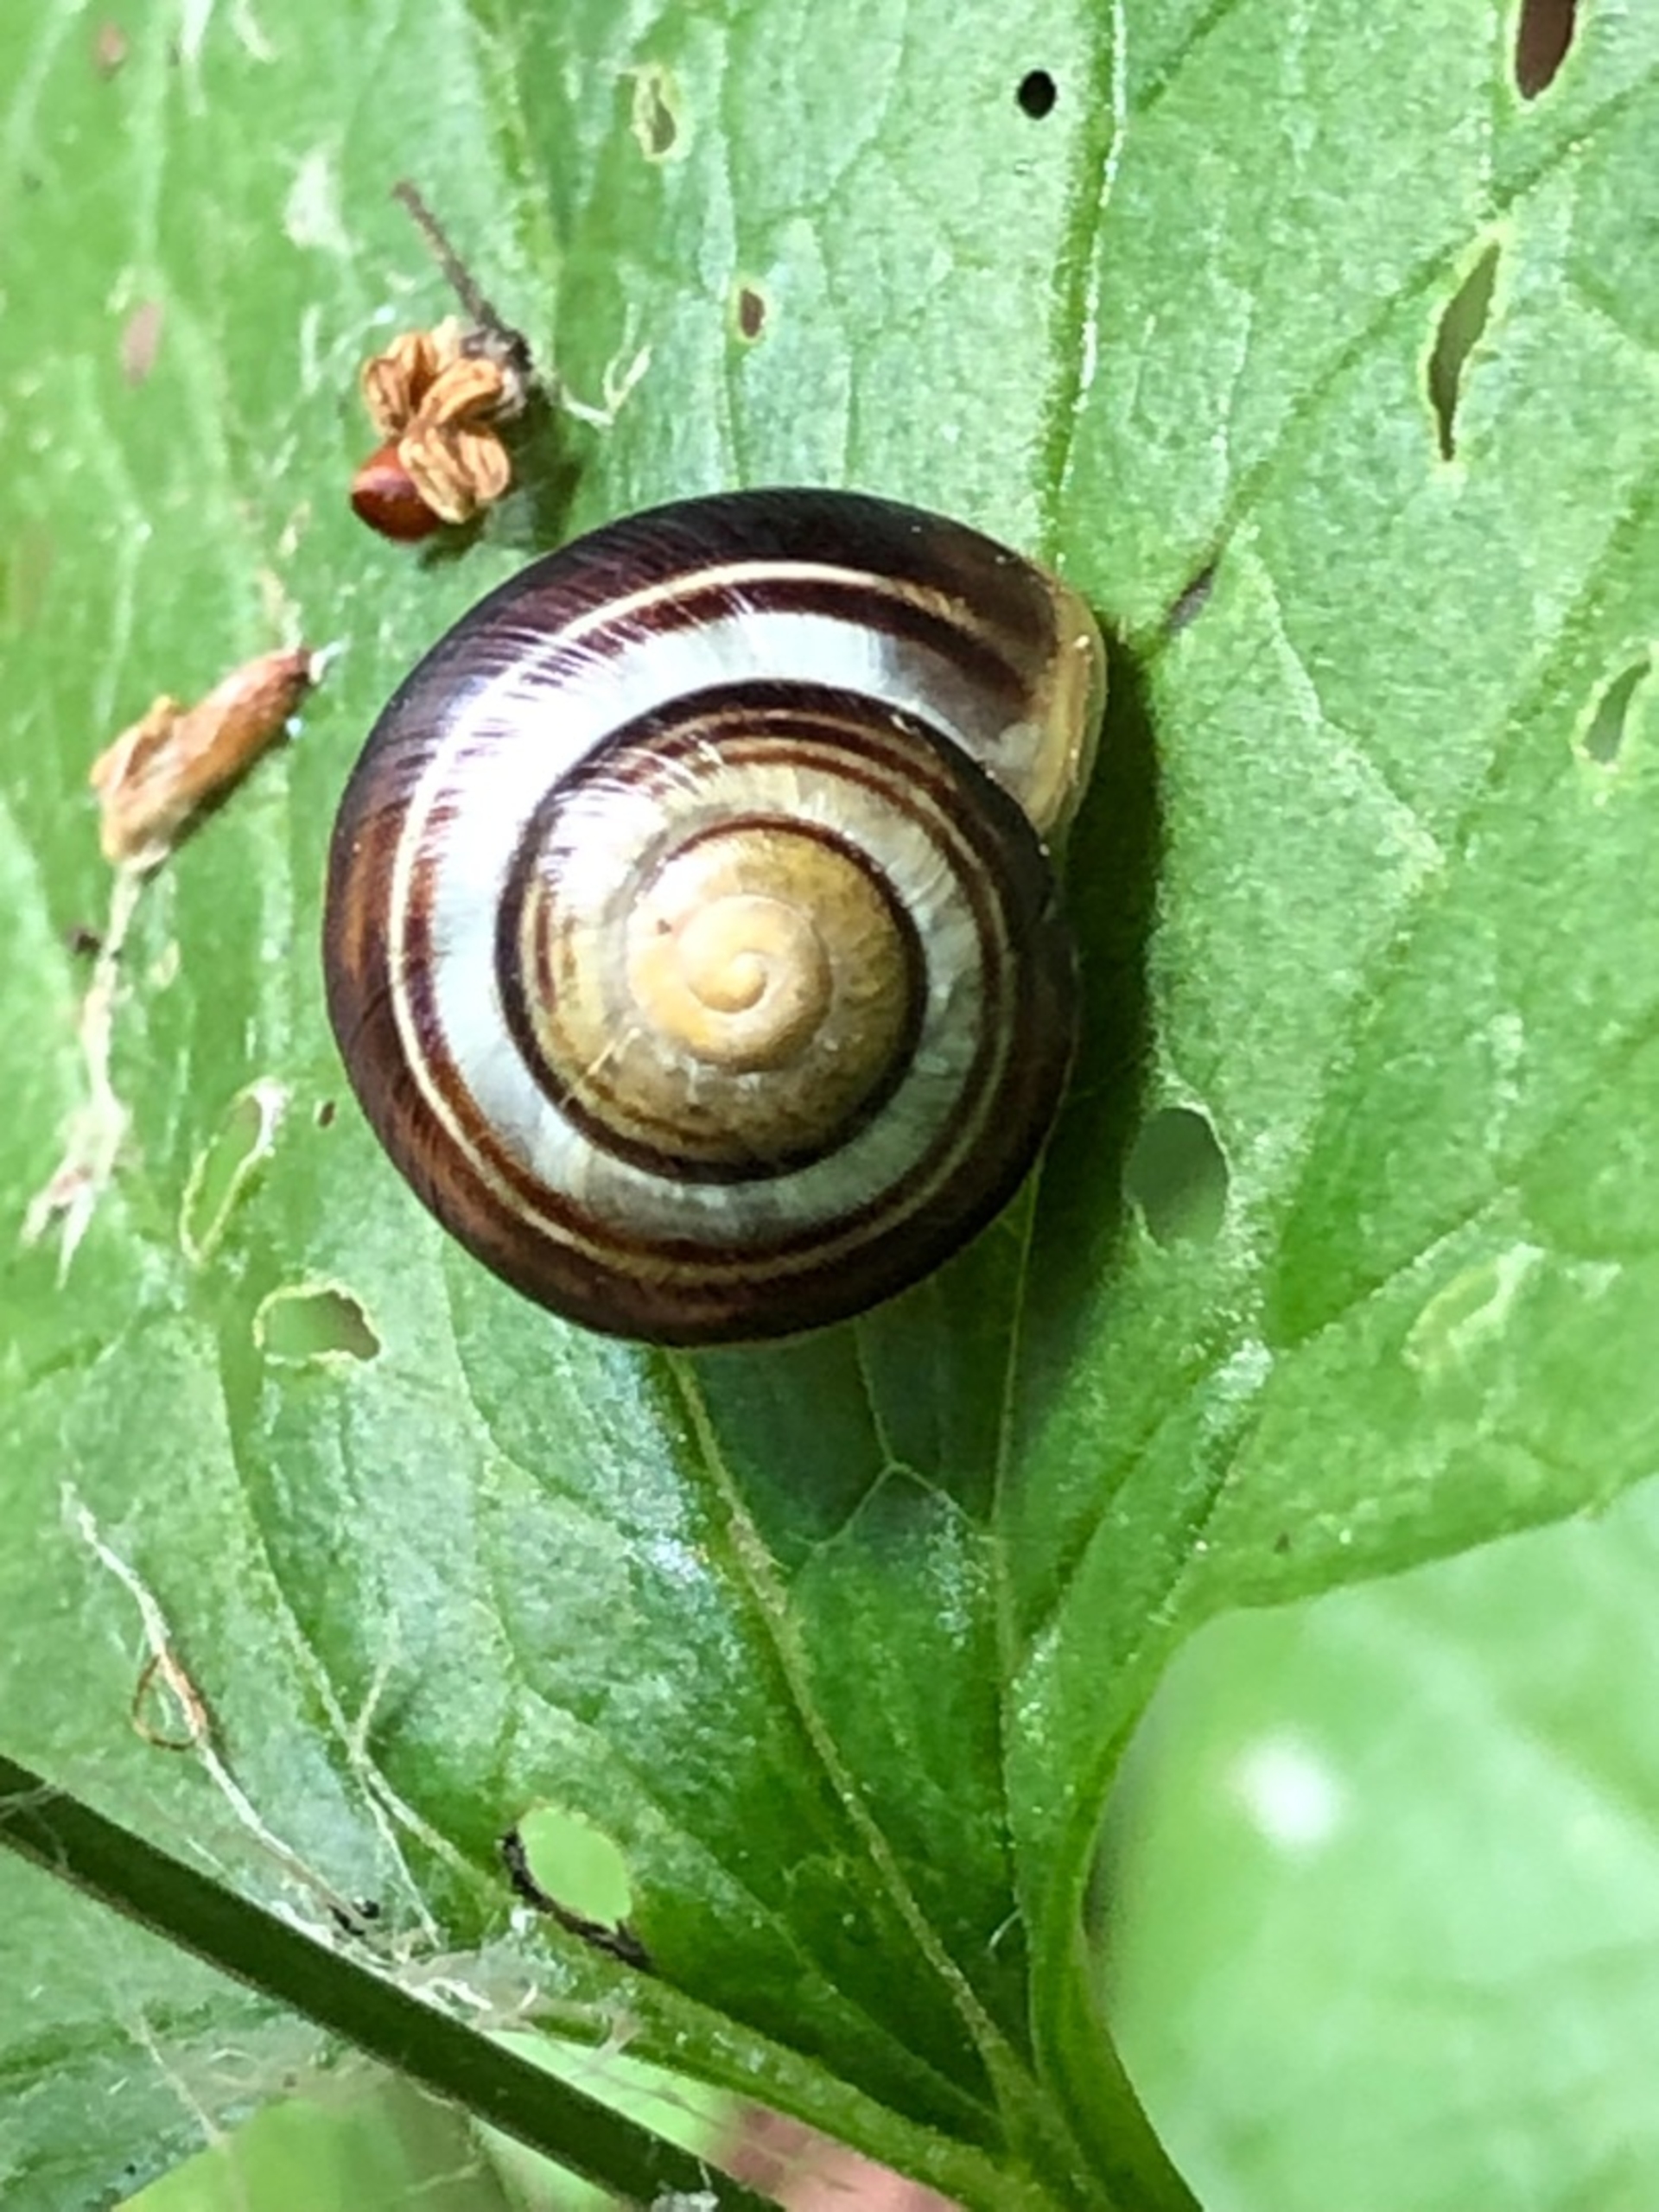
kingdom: Animalia
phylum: Mollusca
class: Gastropoda
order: Stylommatophora
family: Helicidae
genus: Cepaea
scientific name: Cepaea hortensis
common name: Havesnegl
